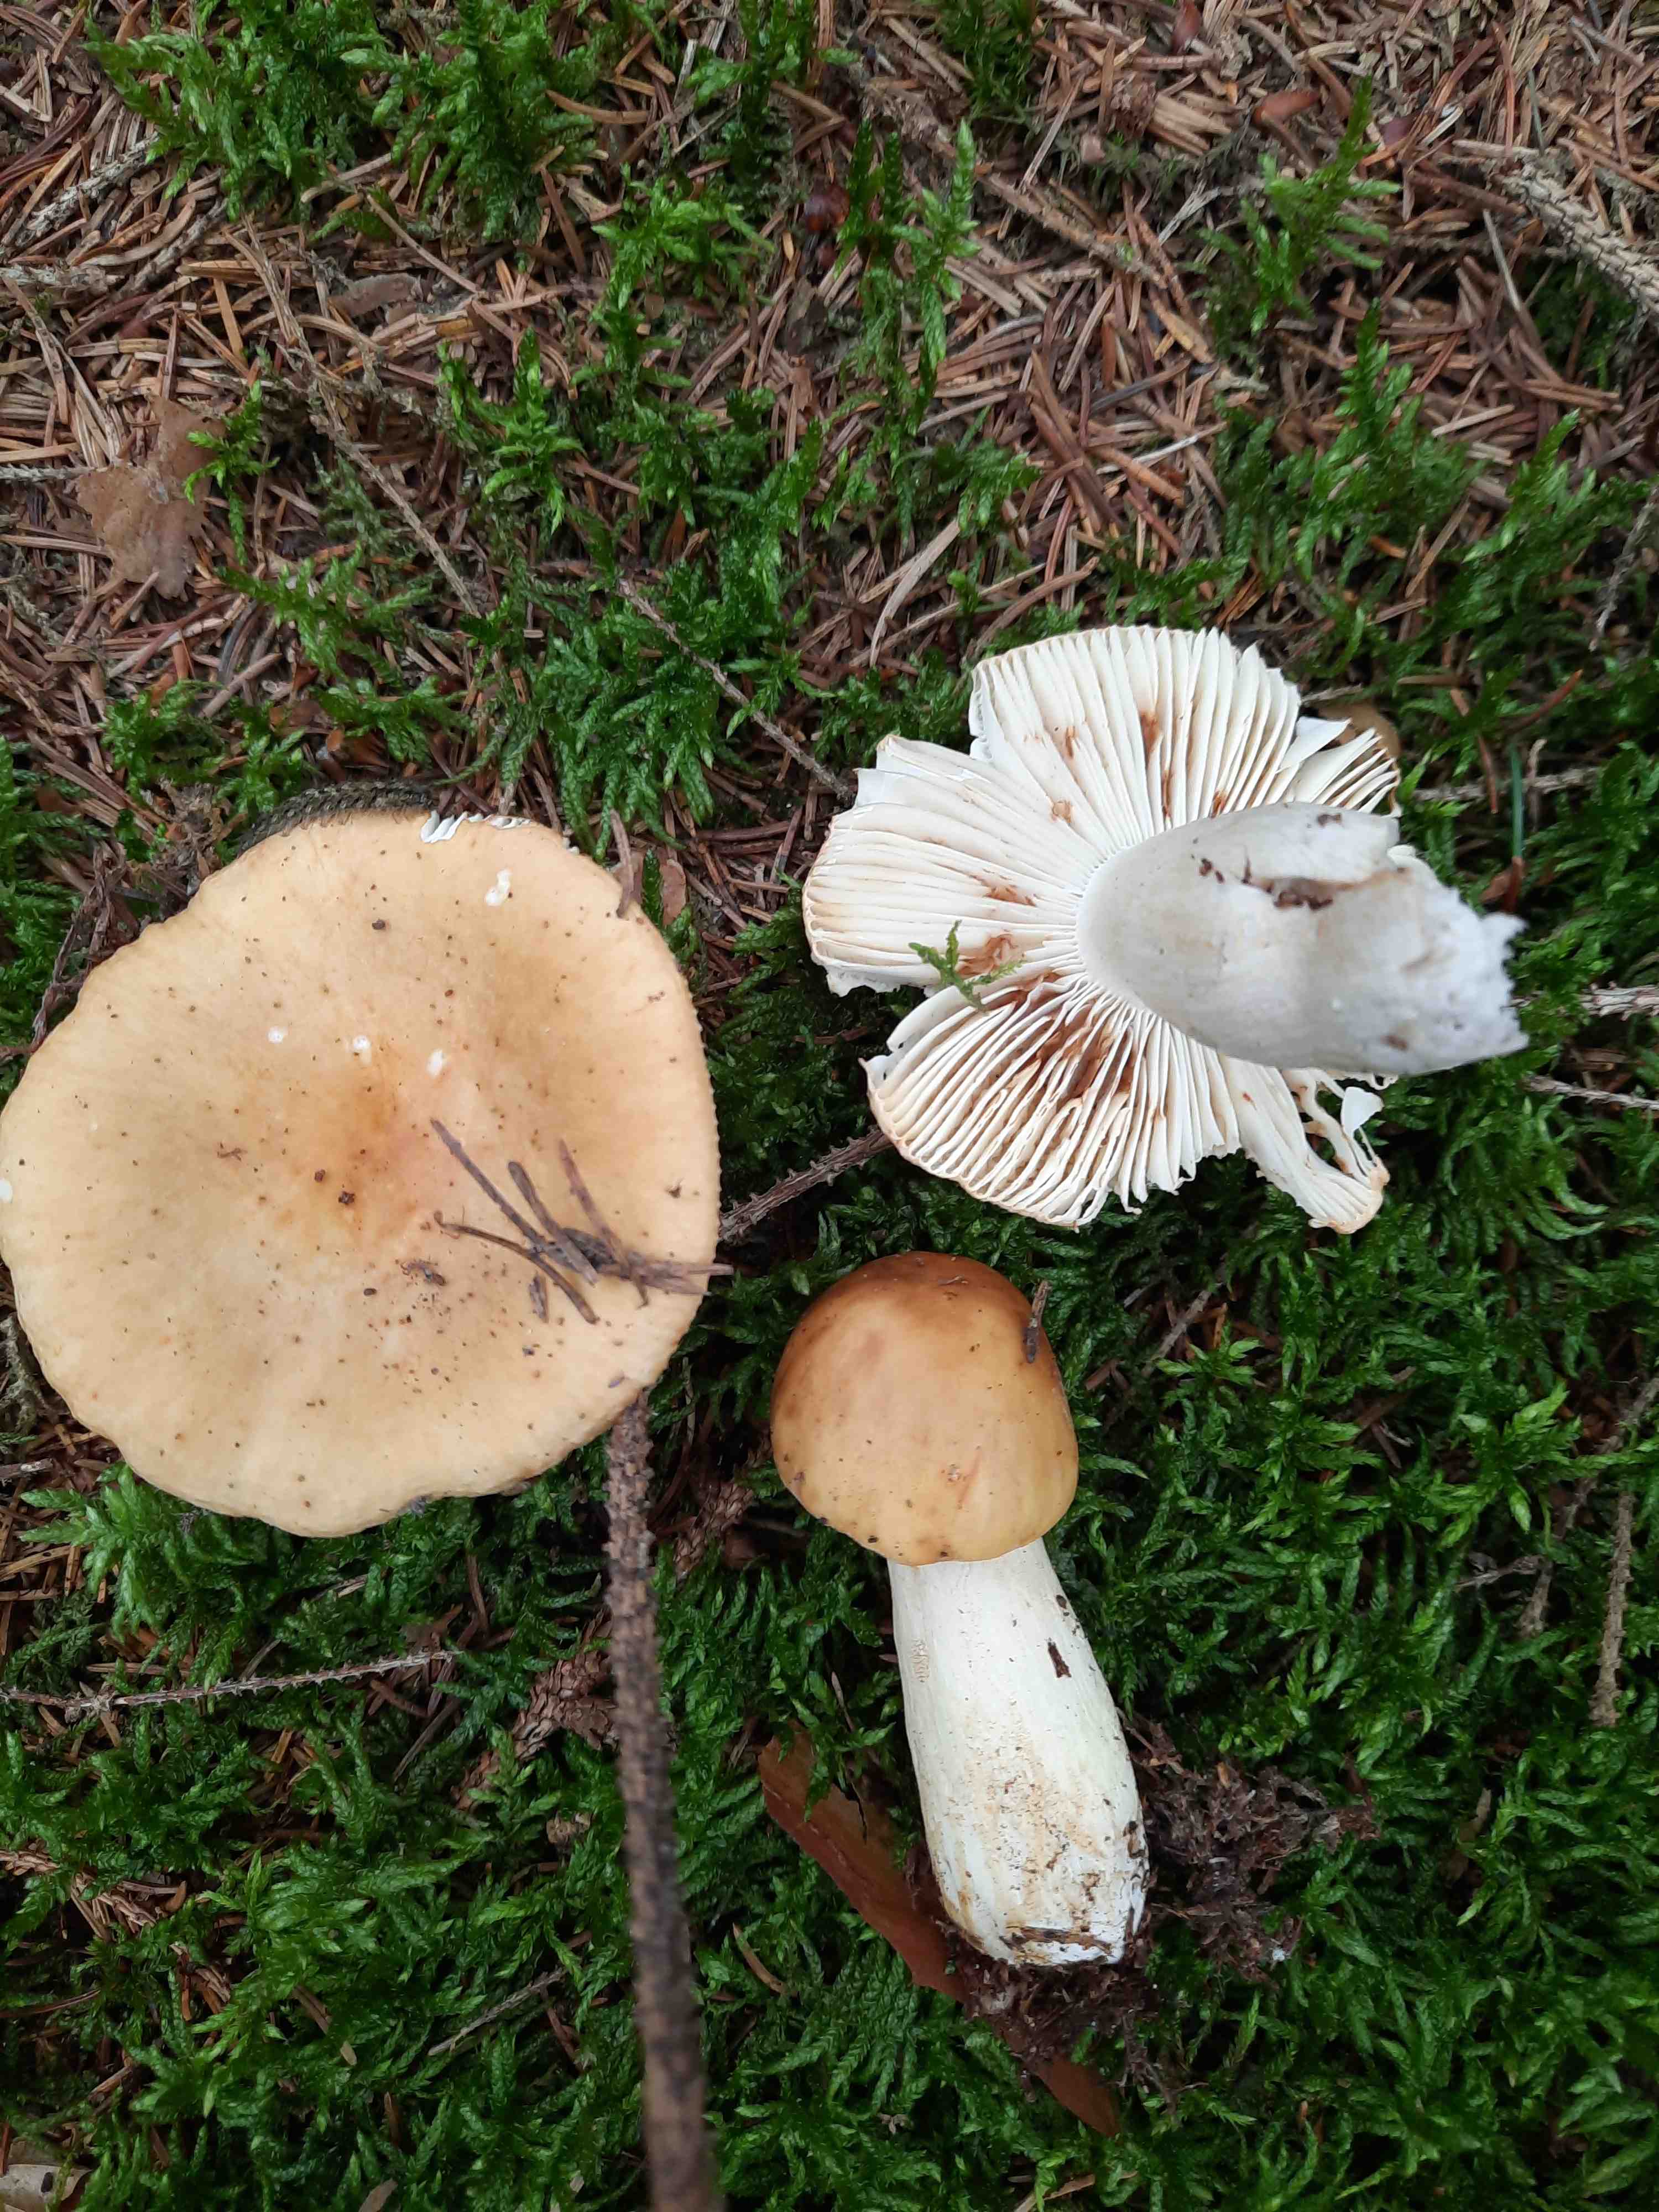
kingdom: Fungi
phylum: Basidiomycota
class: Agaricomycetes
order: Russulales
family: Russulaceae
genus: Russula
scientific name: Russula ochroleuca
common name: okkergul skørhat
